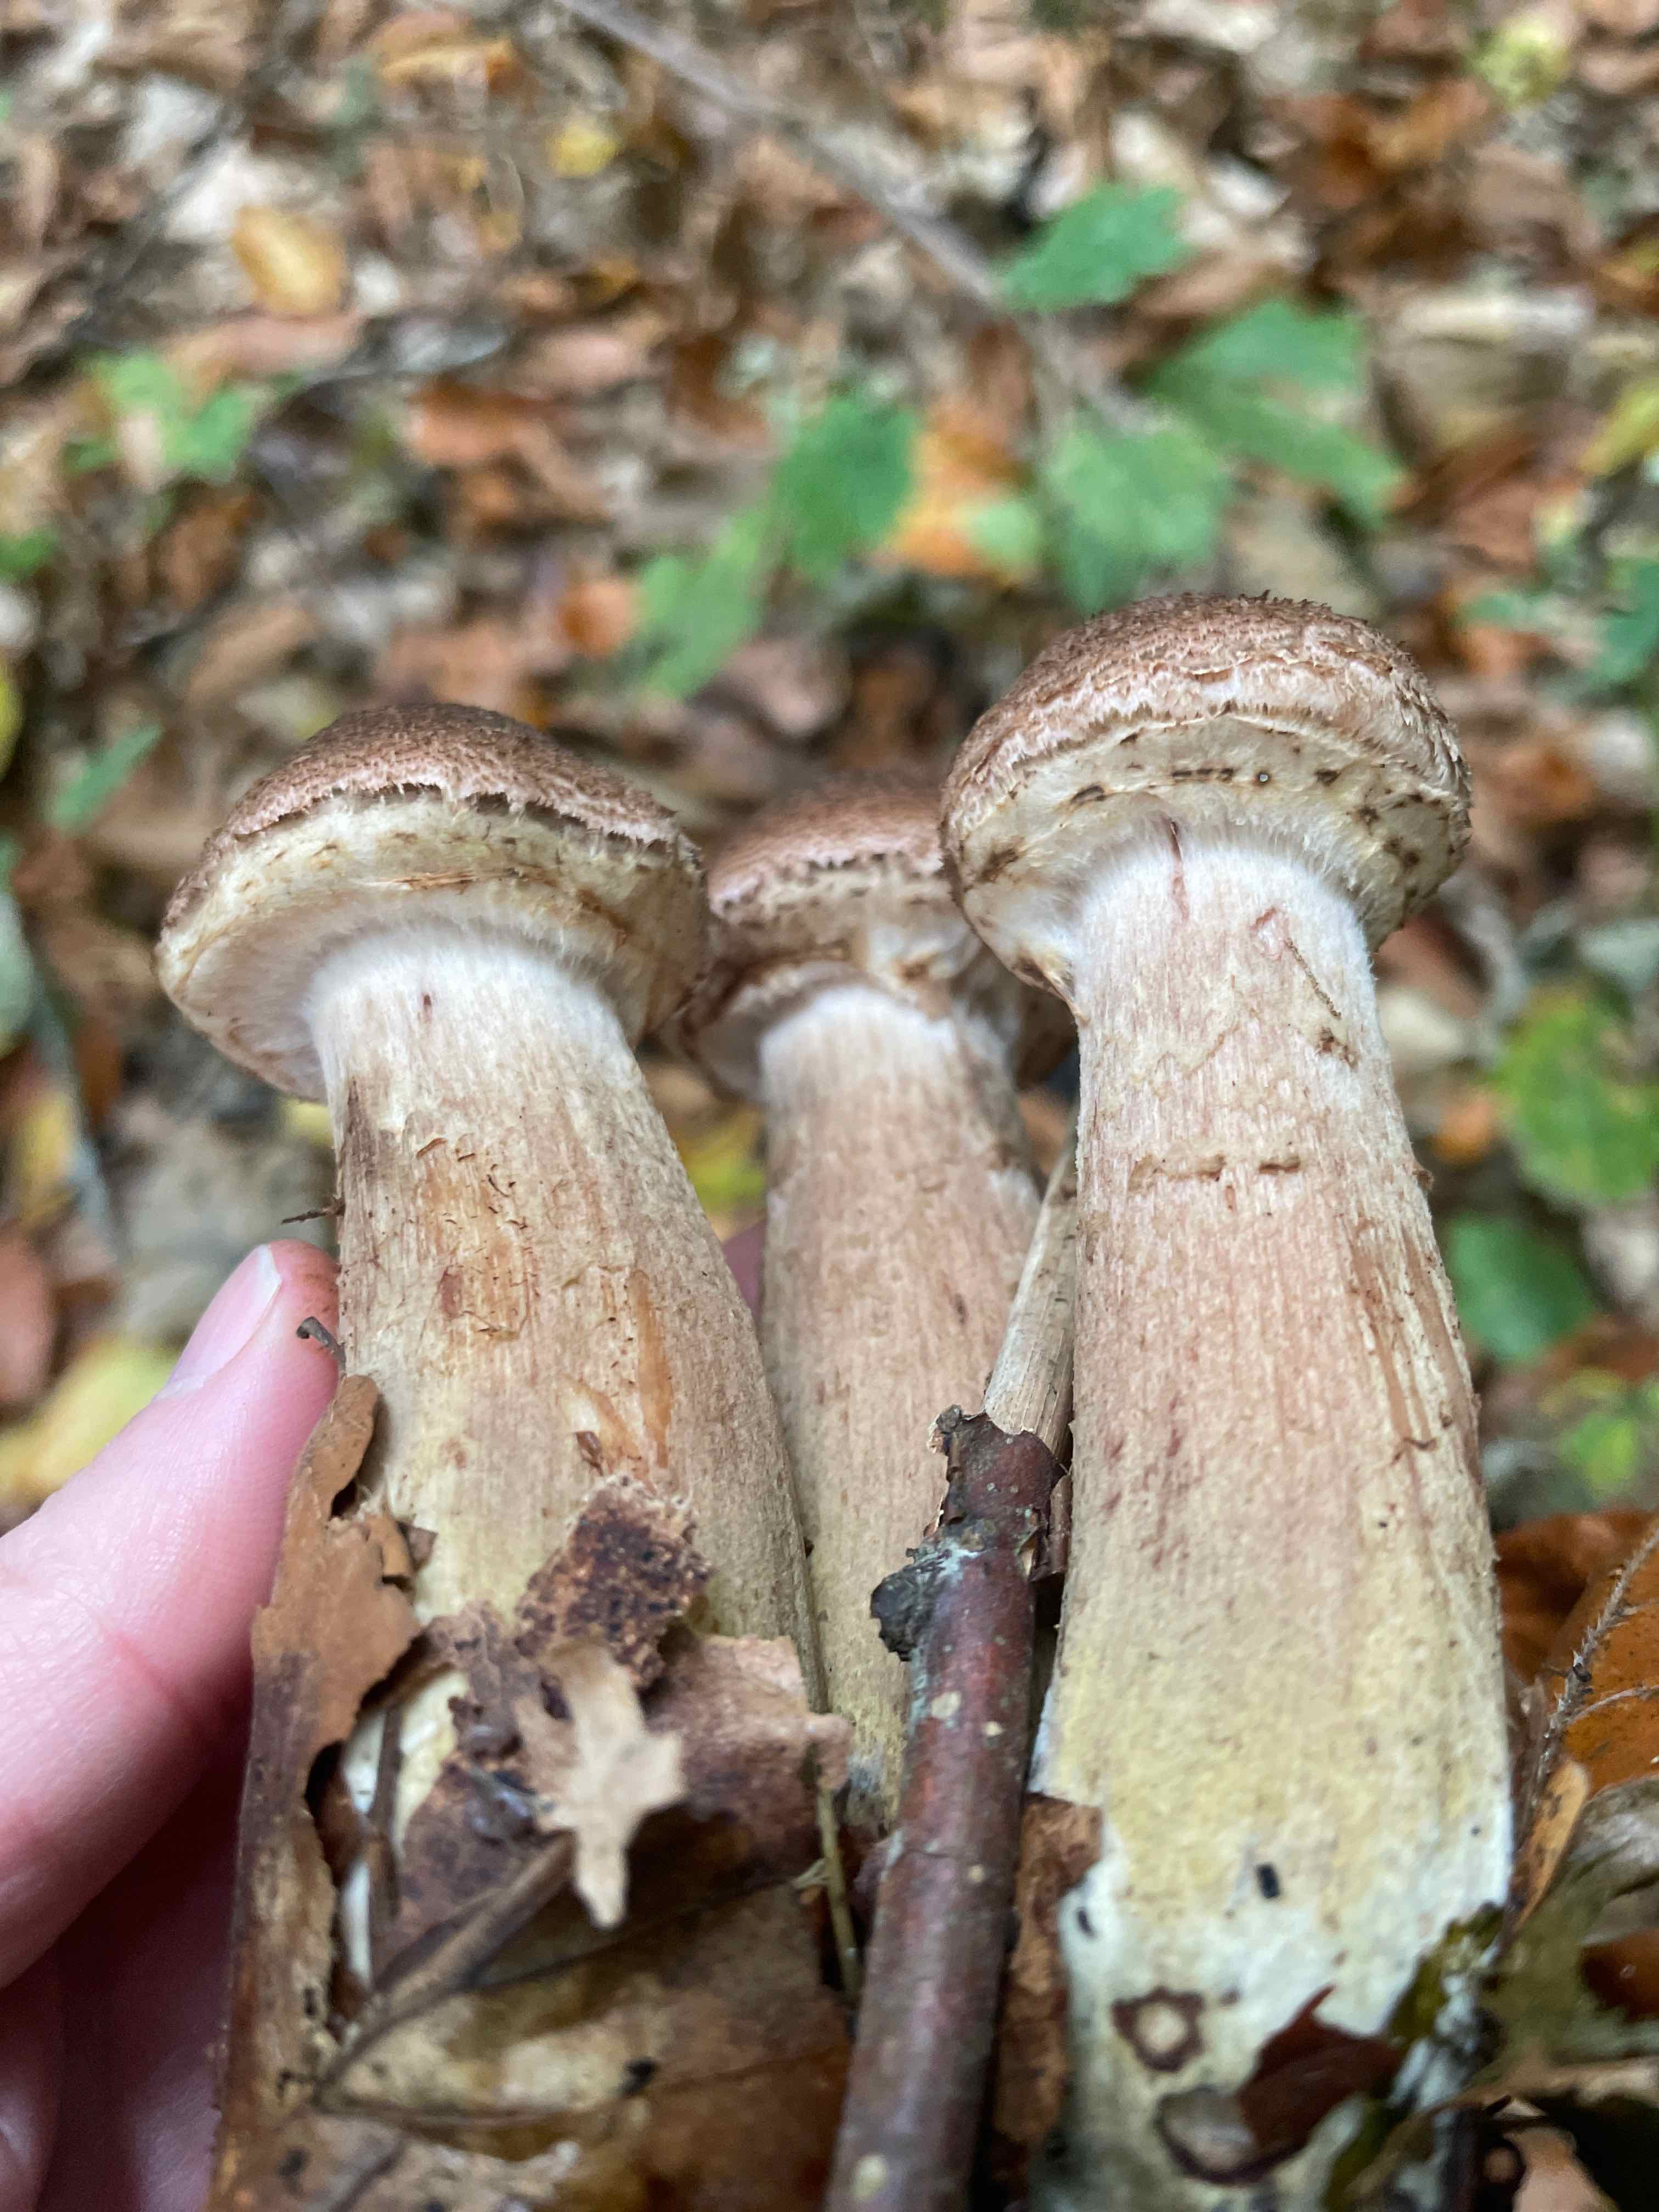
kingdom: Fungi
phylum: Basidiomycota
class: Agaricomycetes
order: Agaricales
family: Physalacriaceae
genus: Armillaria
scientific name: Armillaria lutea
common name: køllestokket honningsvamp
